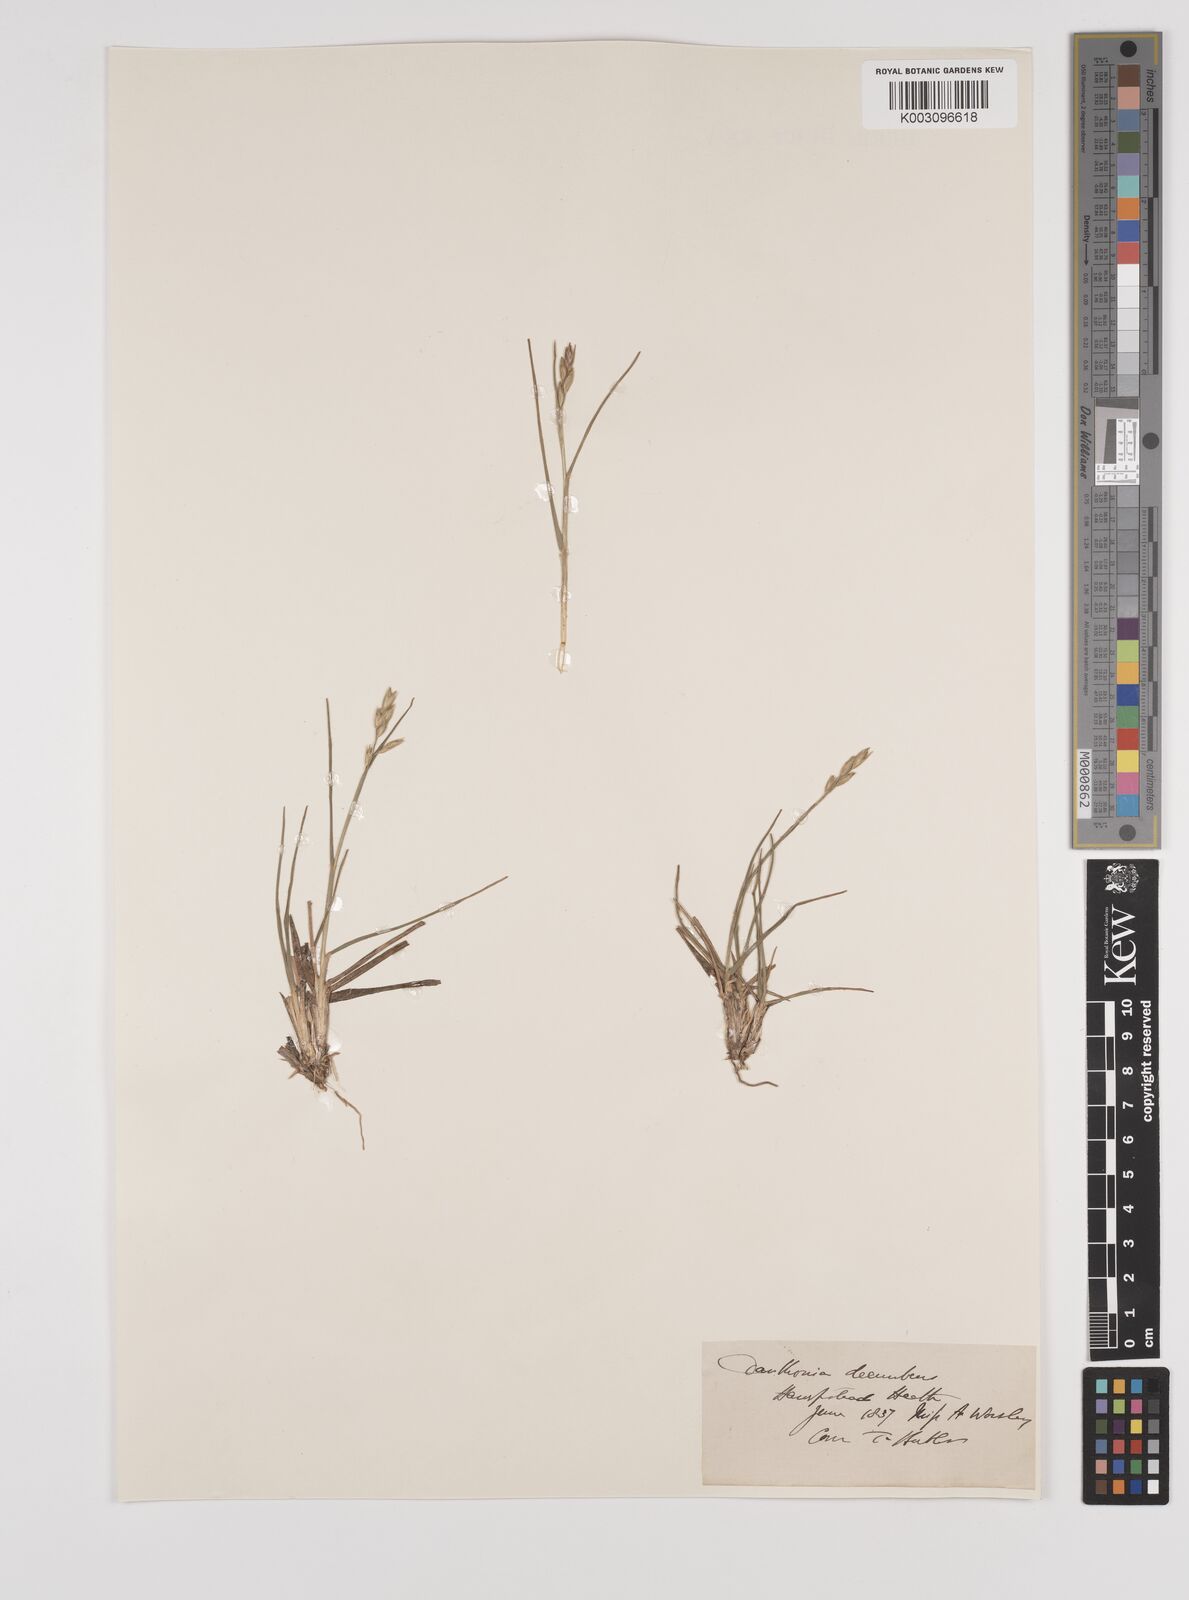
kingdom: Plantae
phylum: Tracheophyta
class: Liliopsida
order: Poales
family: Poaceae
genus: Danthonia
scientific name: Danthonia decumbens
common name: Common heathgrass
